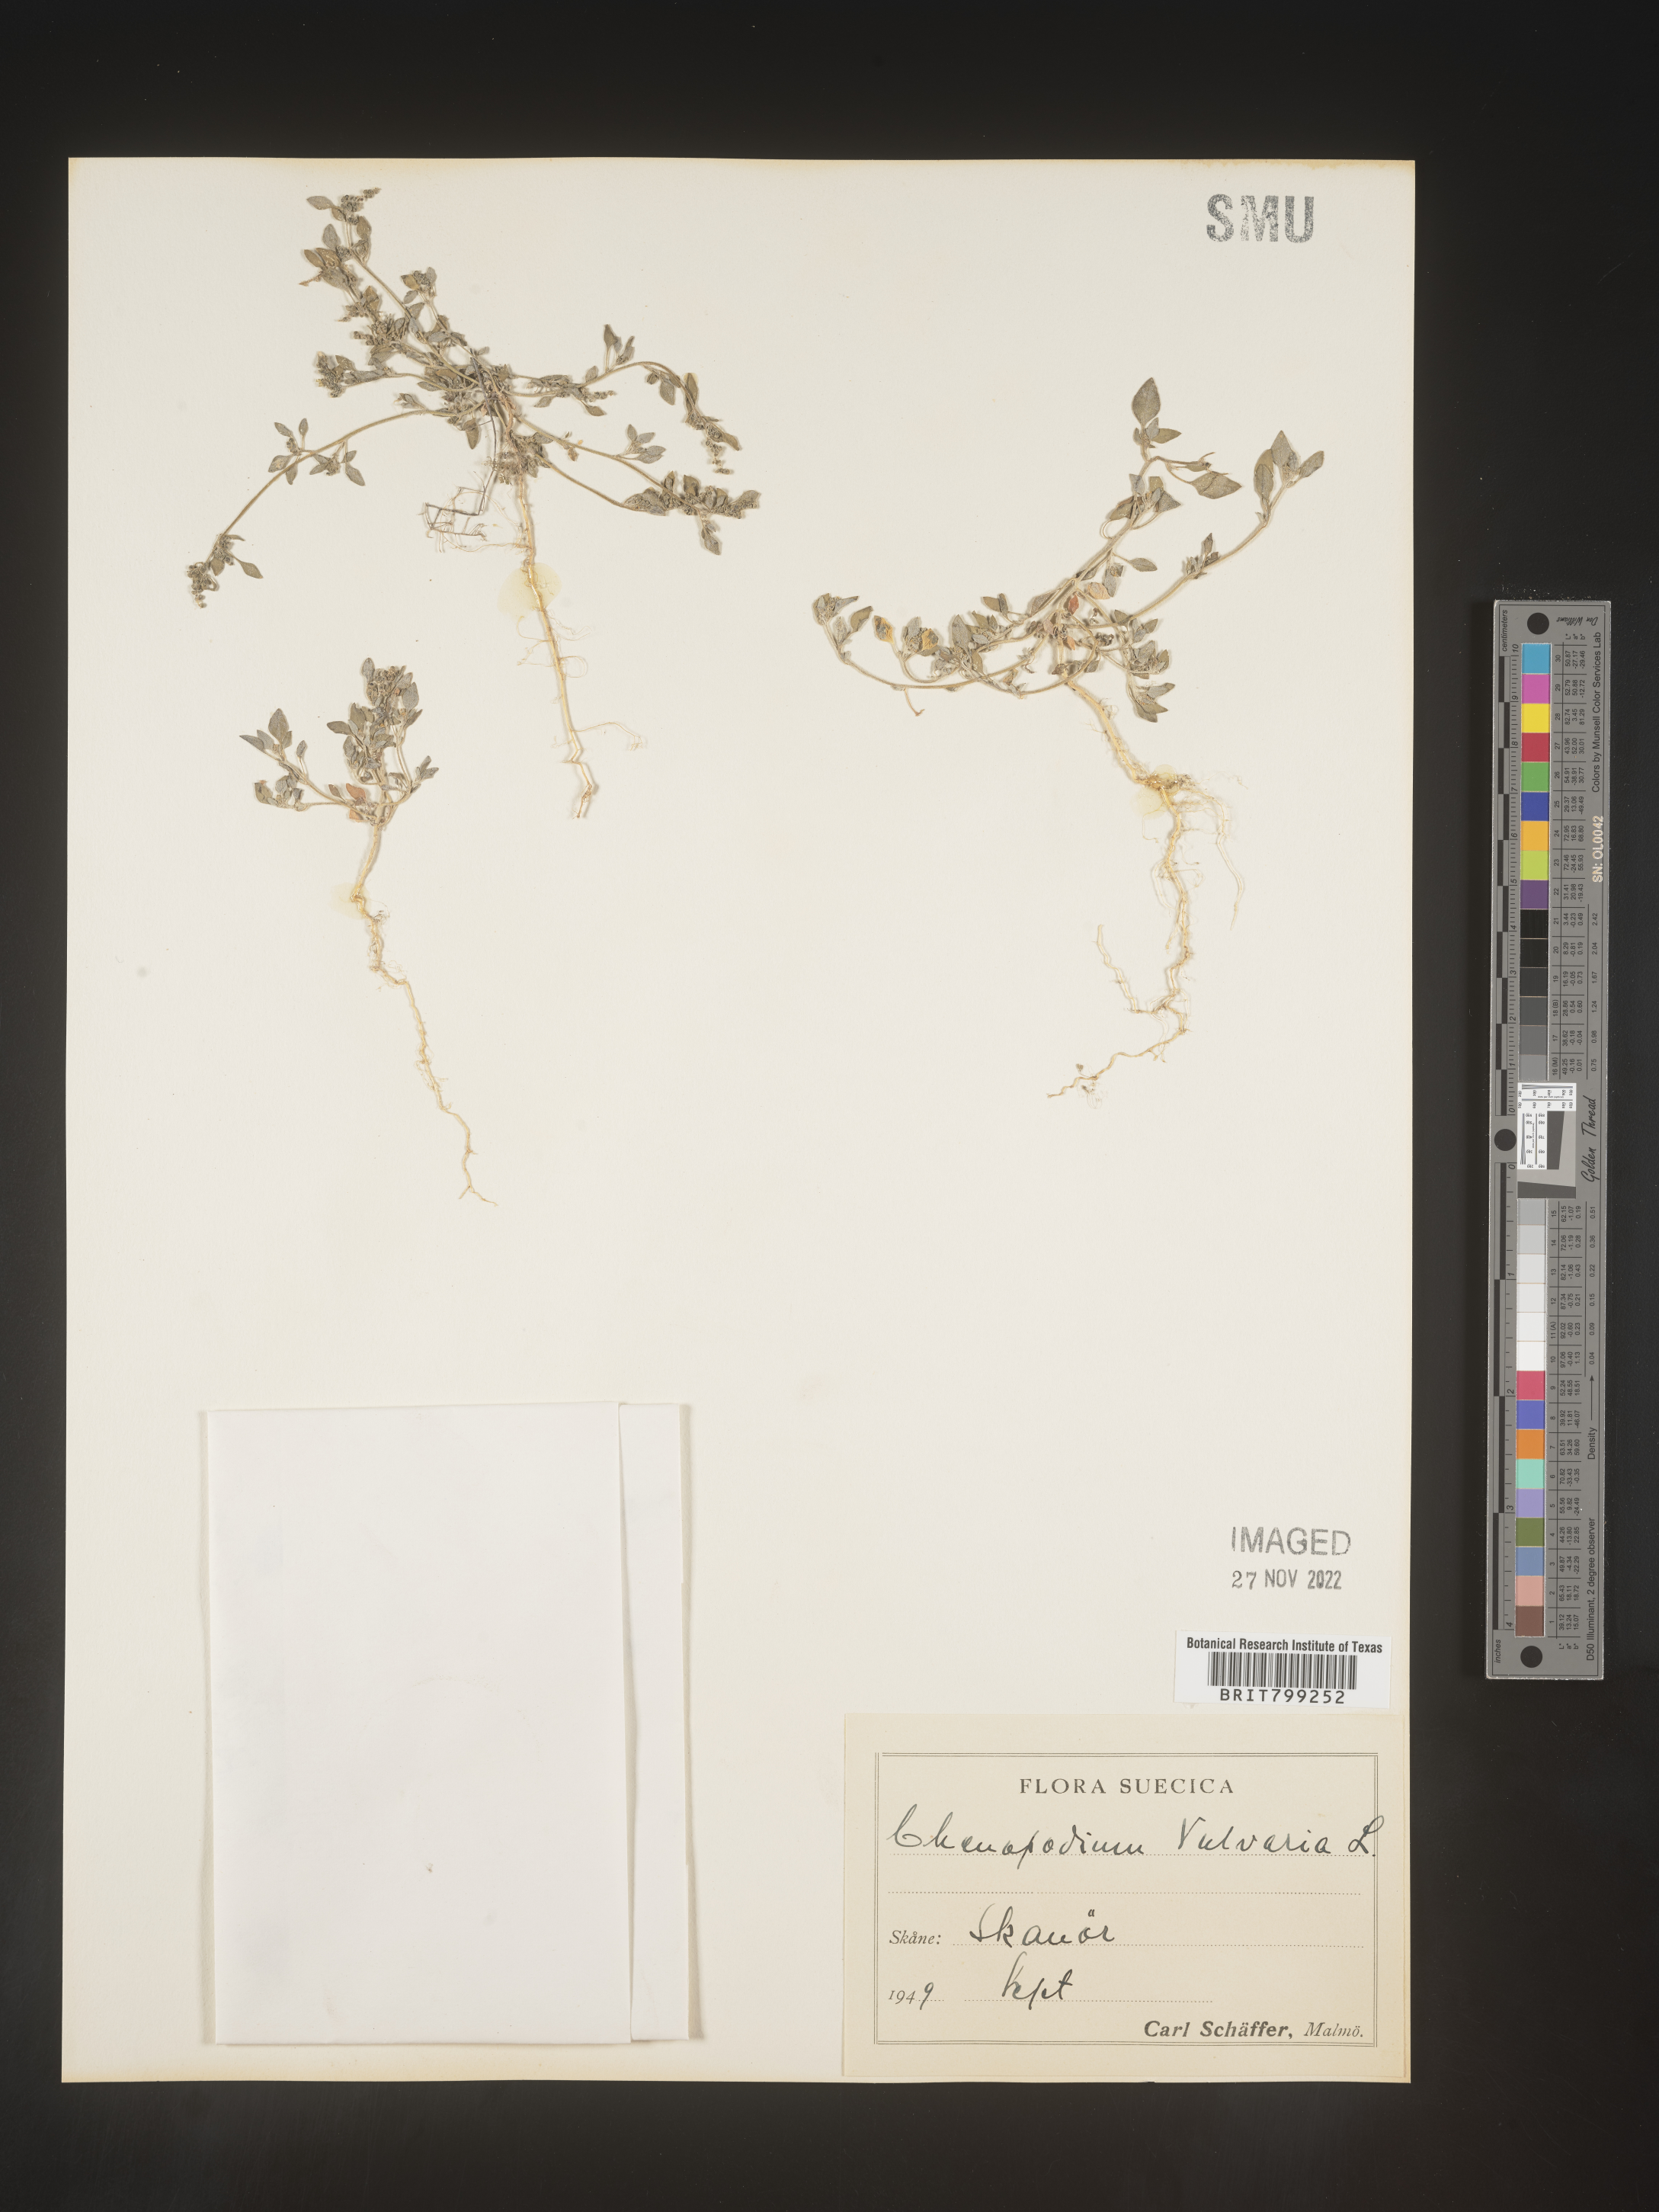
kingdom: Plantae
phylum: Tracheophyta
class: Magnoliopsida
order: Caryophyllales
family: Amaranthaceae
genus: Chenopodium
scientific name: Chenopodium
